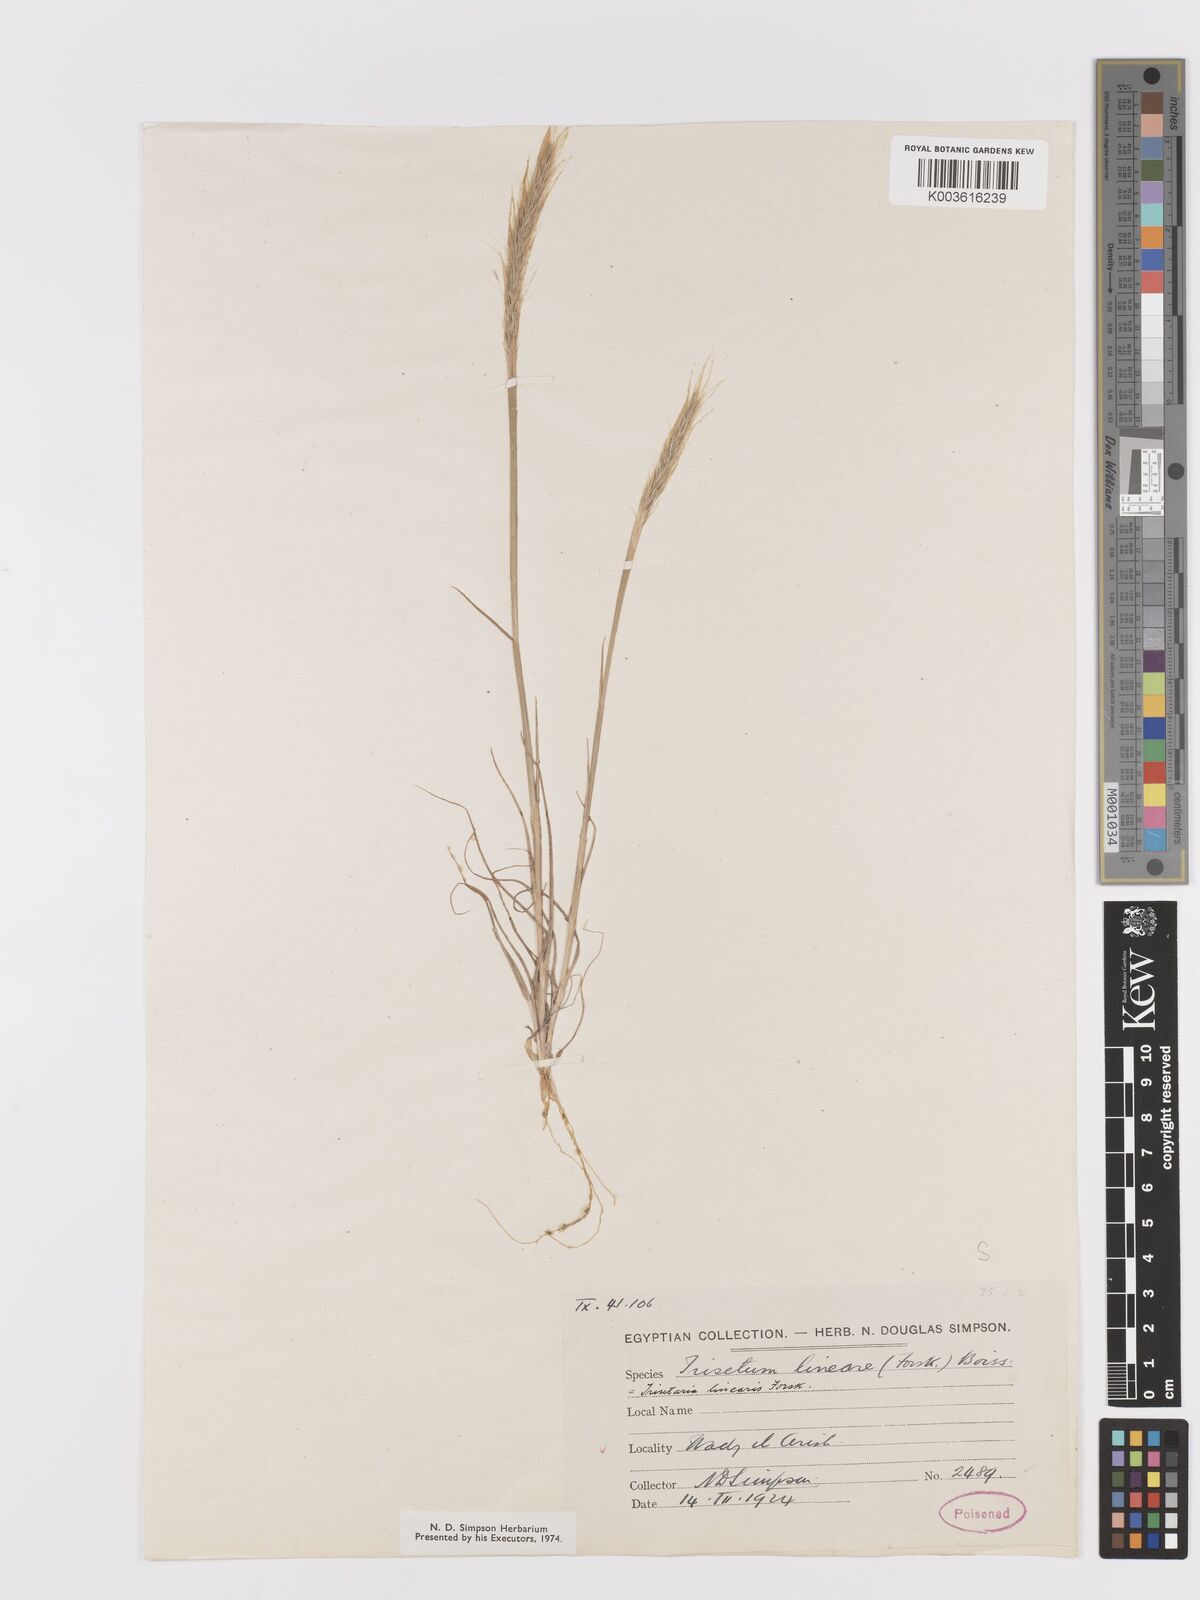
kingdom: Plantae
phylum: Tracheophyta
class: Liliopsida
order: Poales
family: Poaceae
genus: Trisetaria
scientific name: Trisetaria linearis
